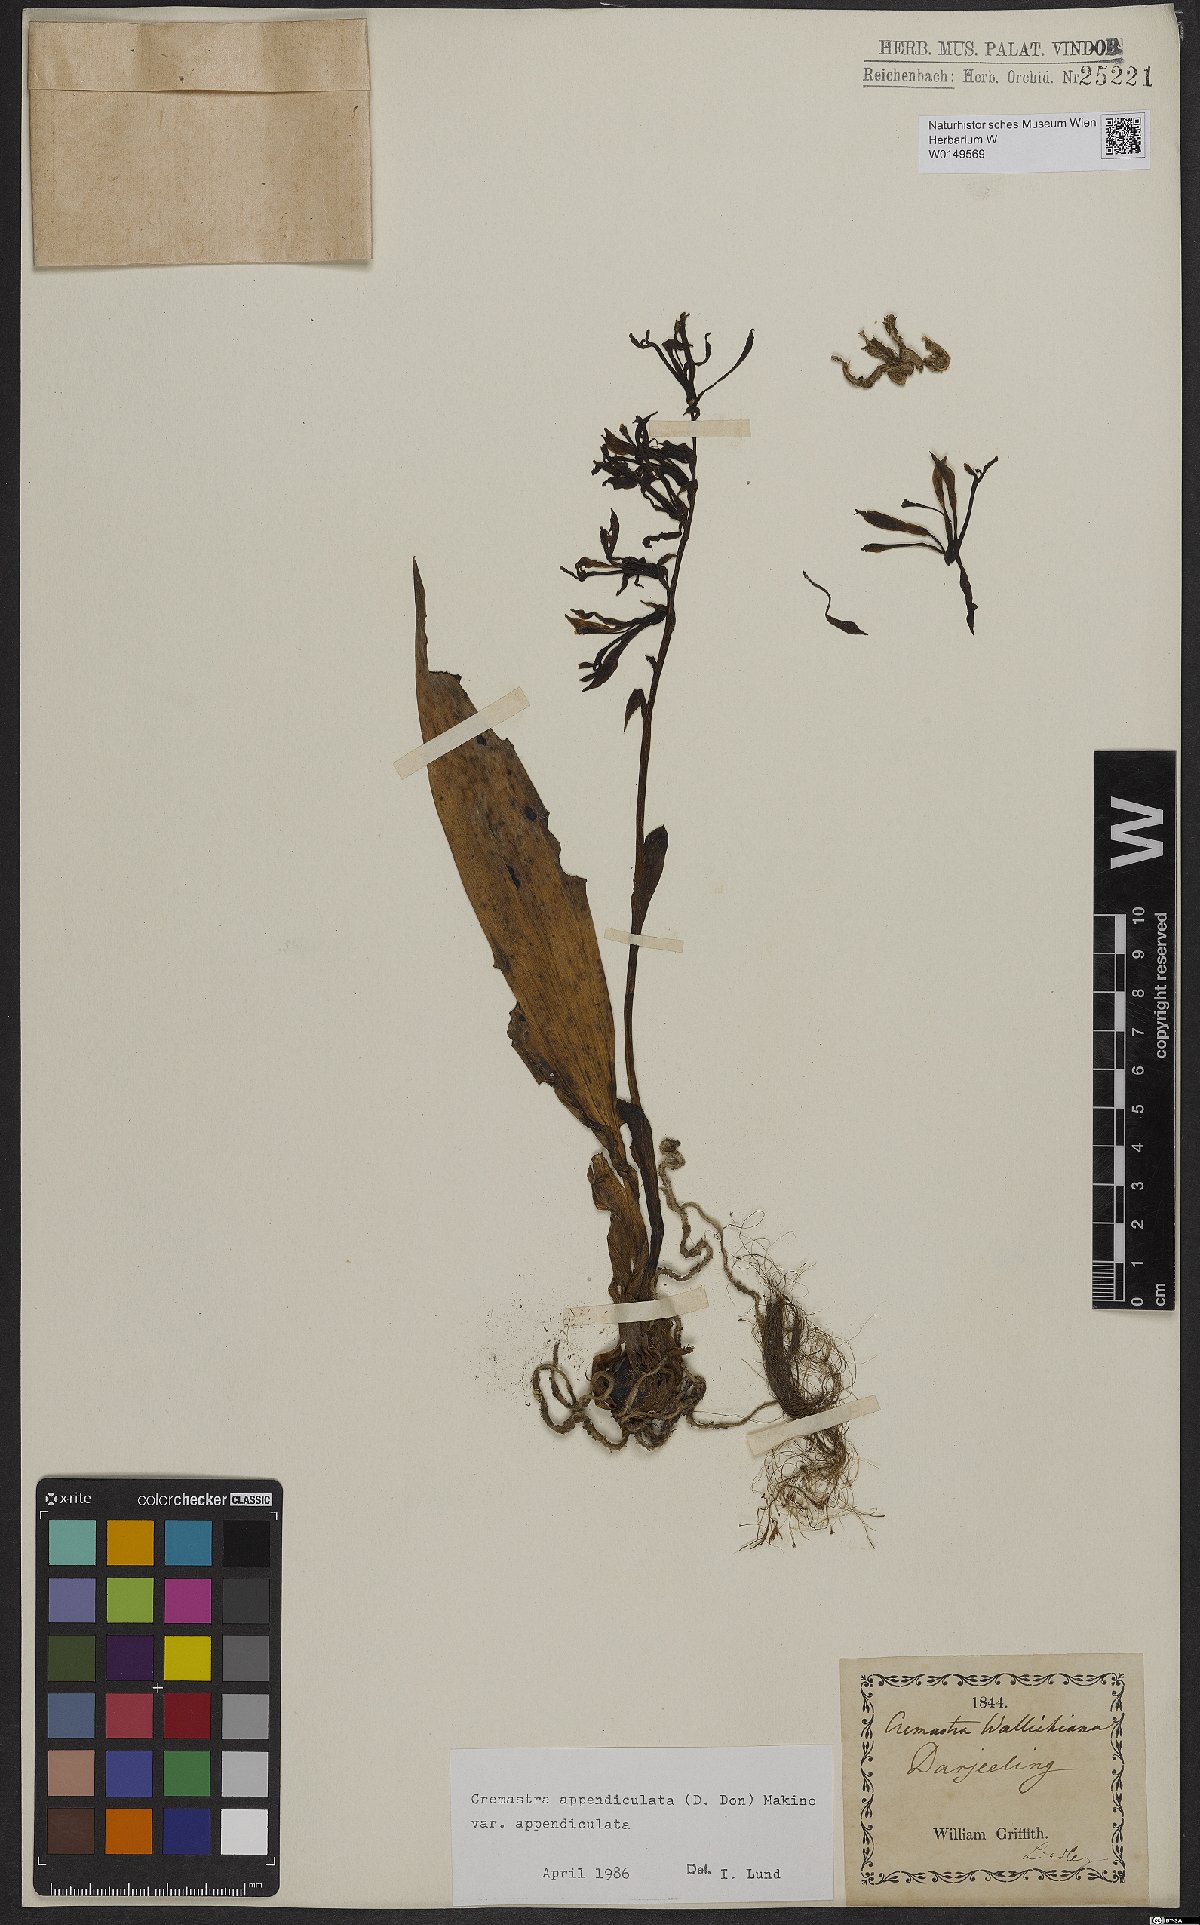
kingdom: Plantae
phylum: Tracheophyta
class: Liliopsida
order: Asparagales
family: Orchidaceae
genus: Cremastra
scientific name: Cremastra appendiculata
